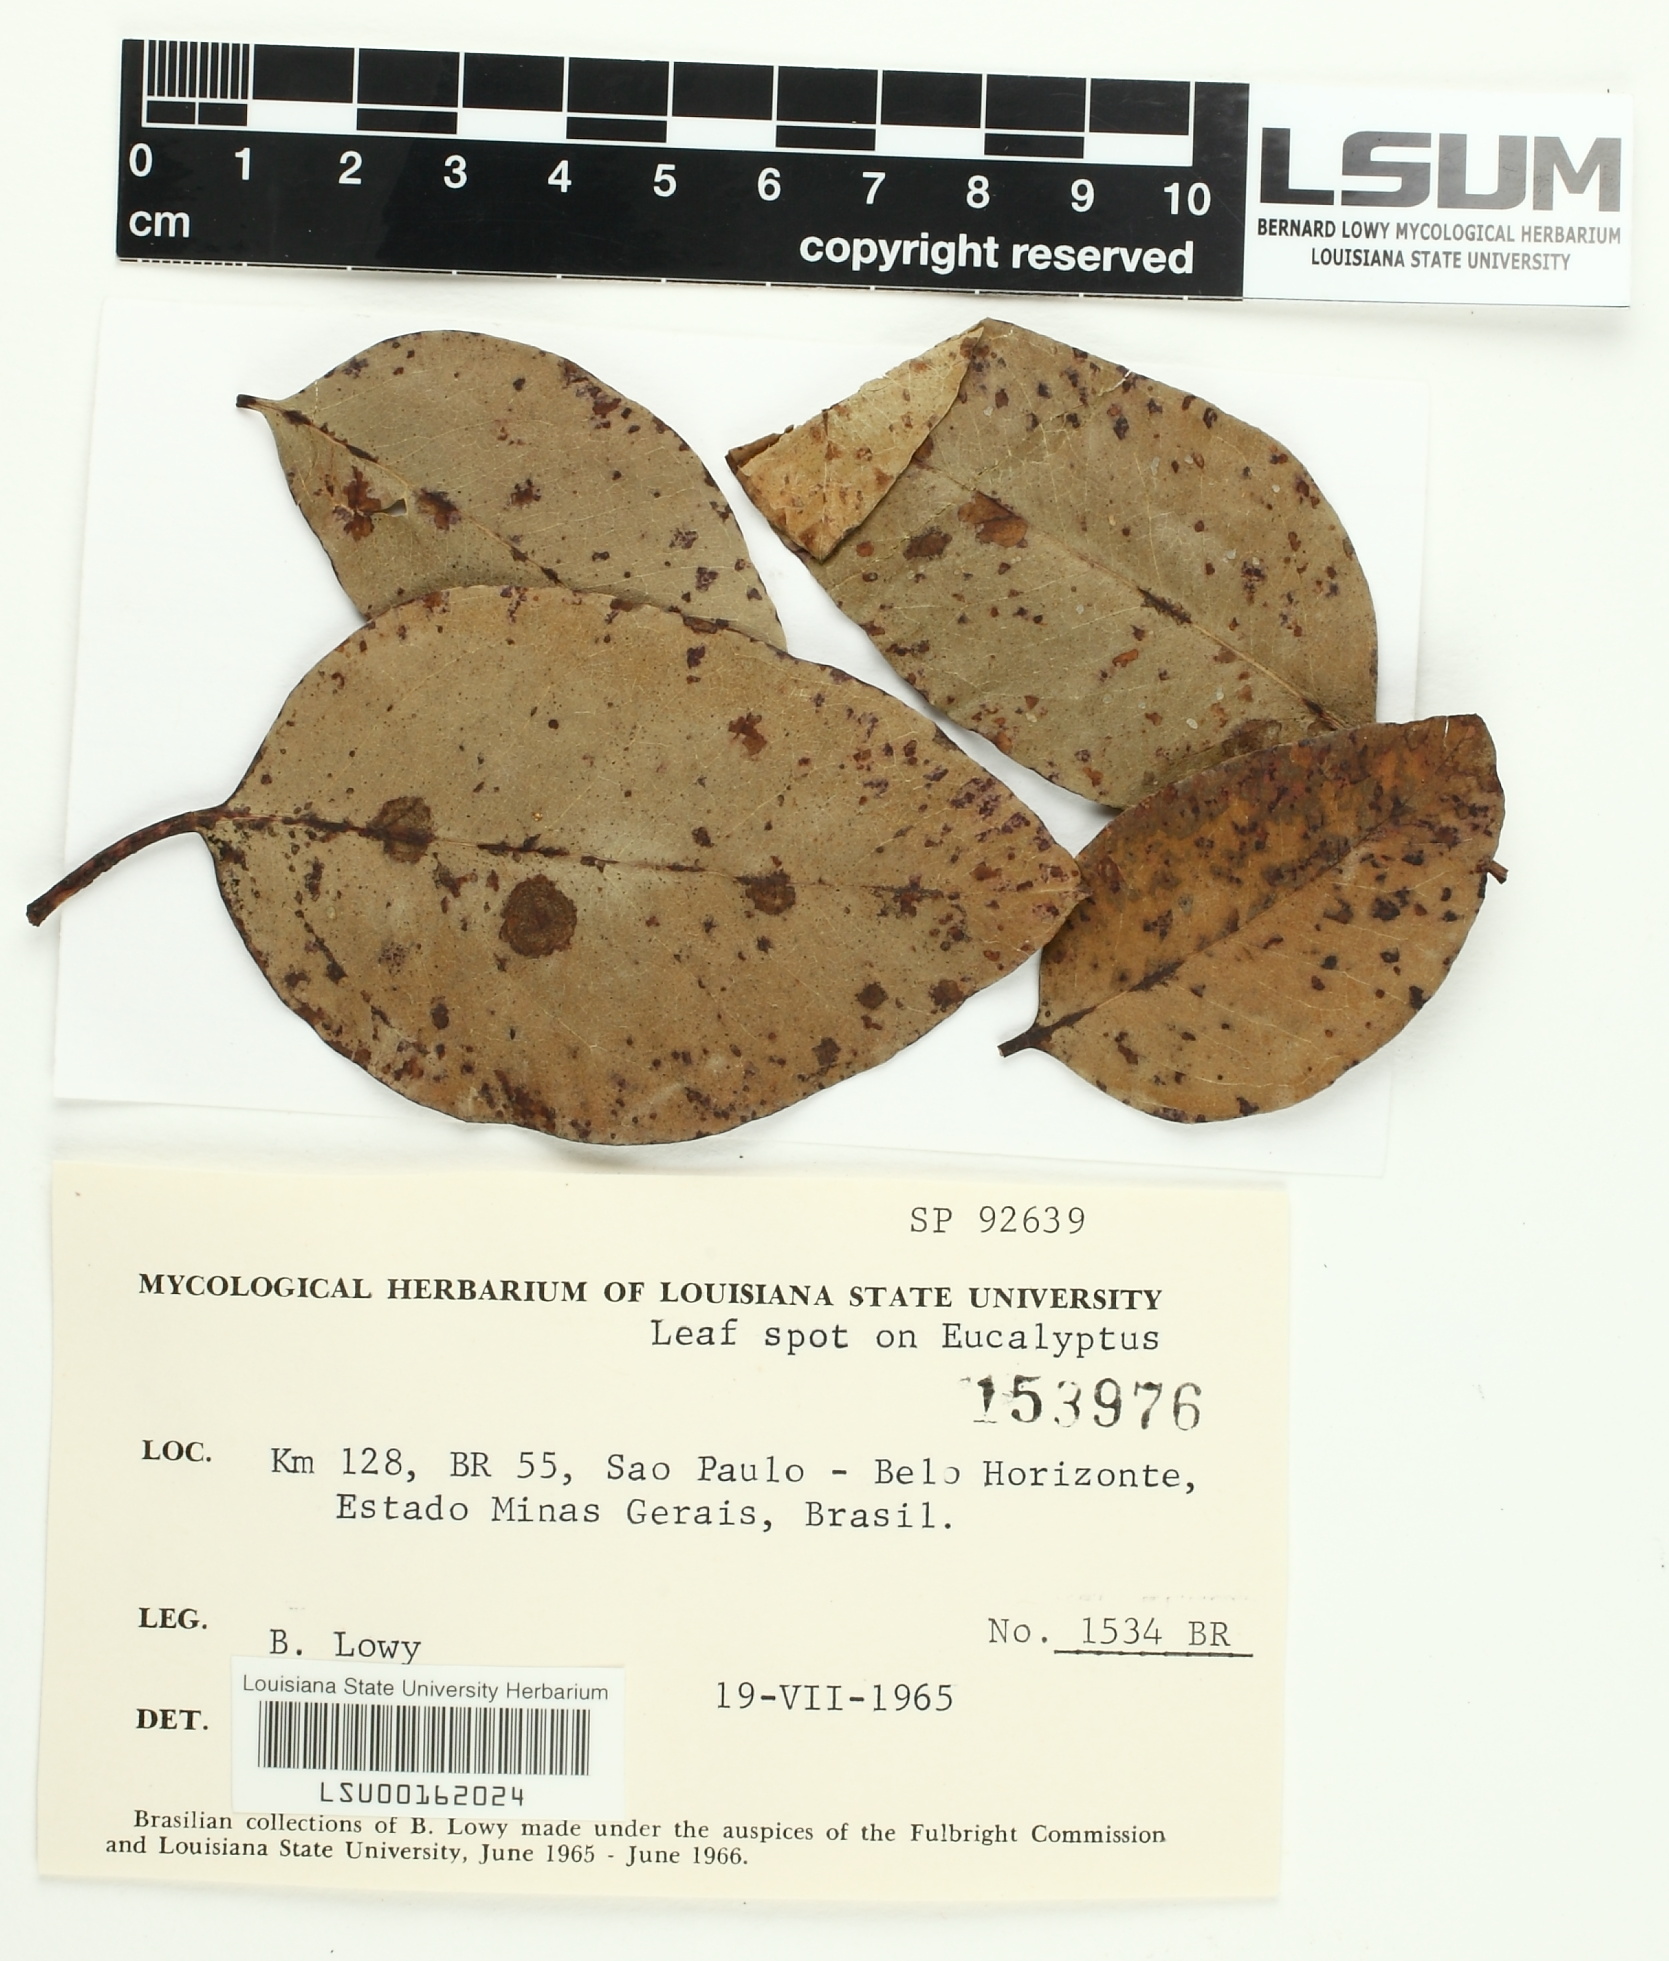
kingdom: Fungi
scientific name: Fungi
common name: Fungi
